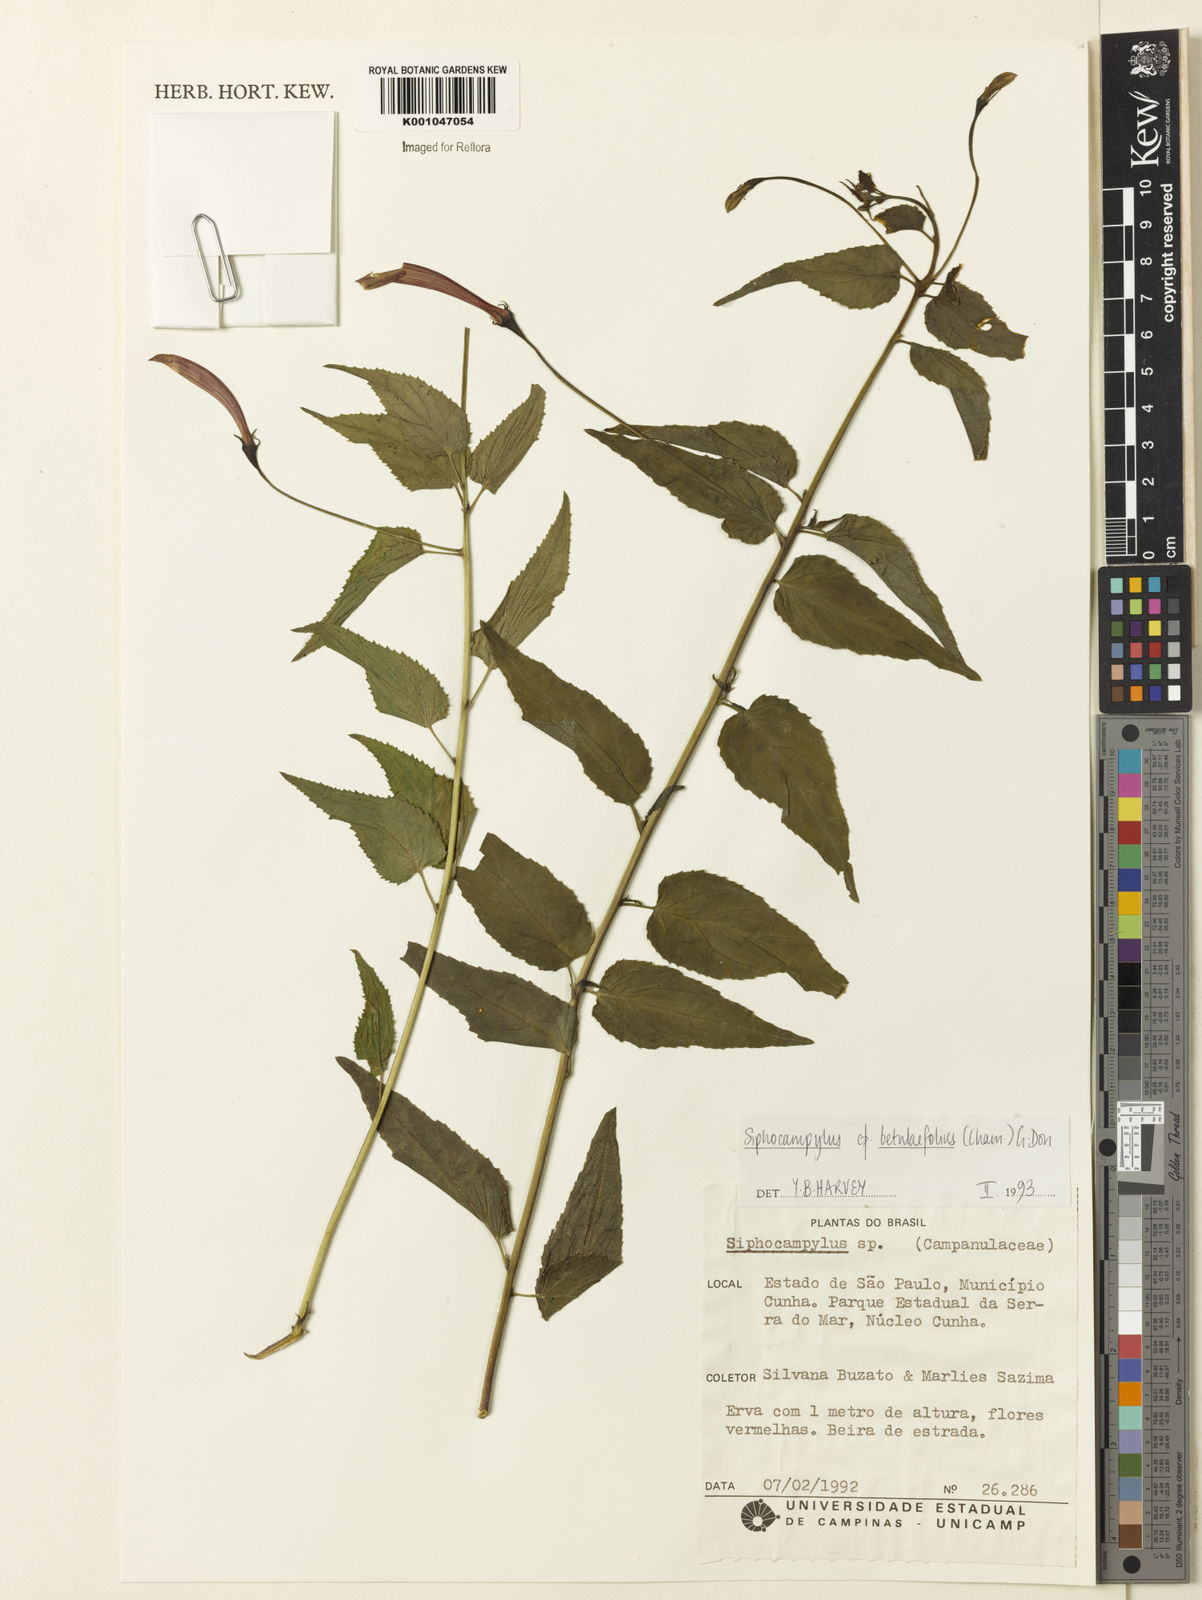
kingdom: Plantae
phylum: Tracheophyta
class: Magnoliopsida
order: Asterales
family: Campanulaceae
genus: Siphocampylus
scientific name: Siphocampylus betulifolius
